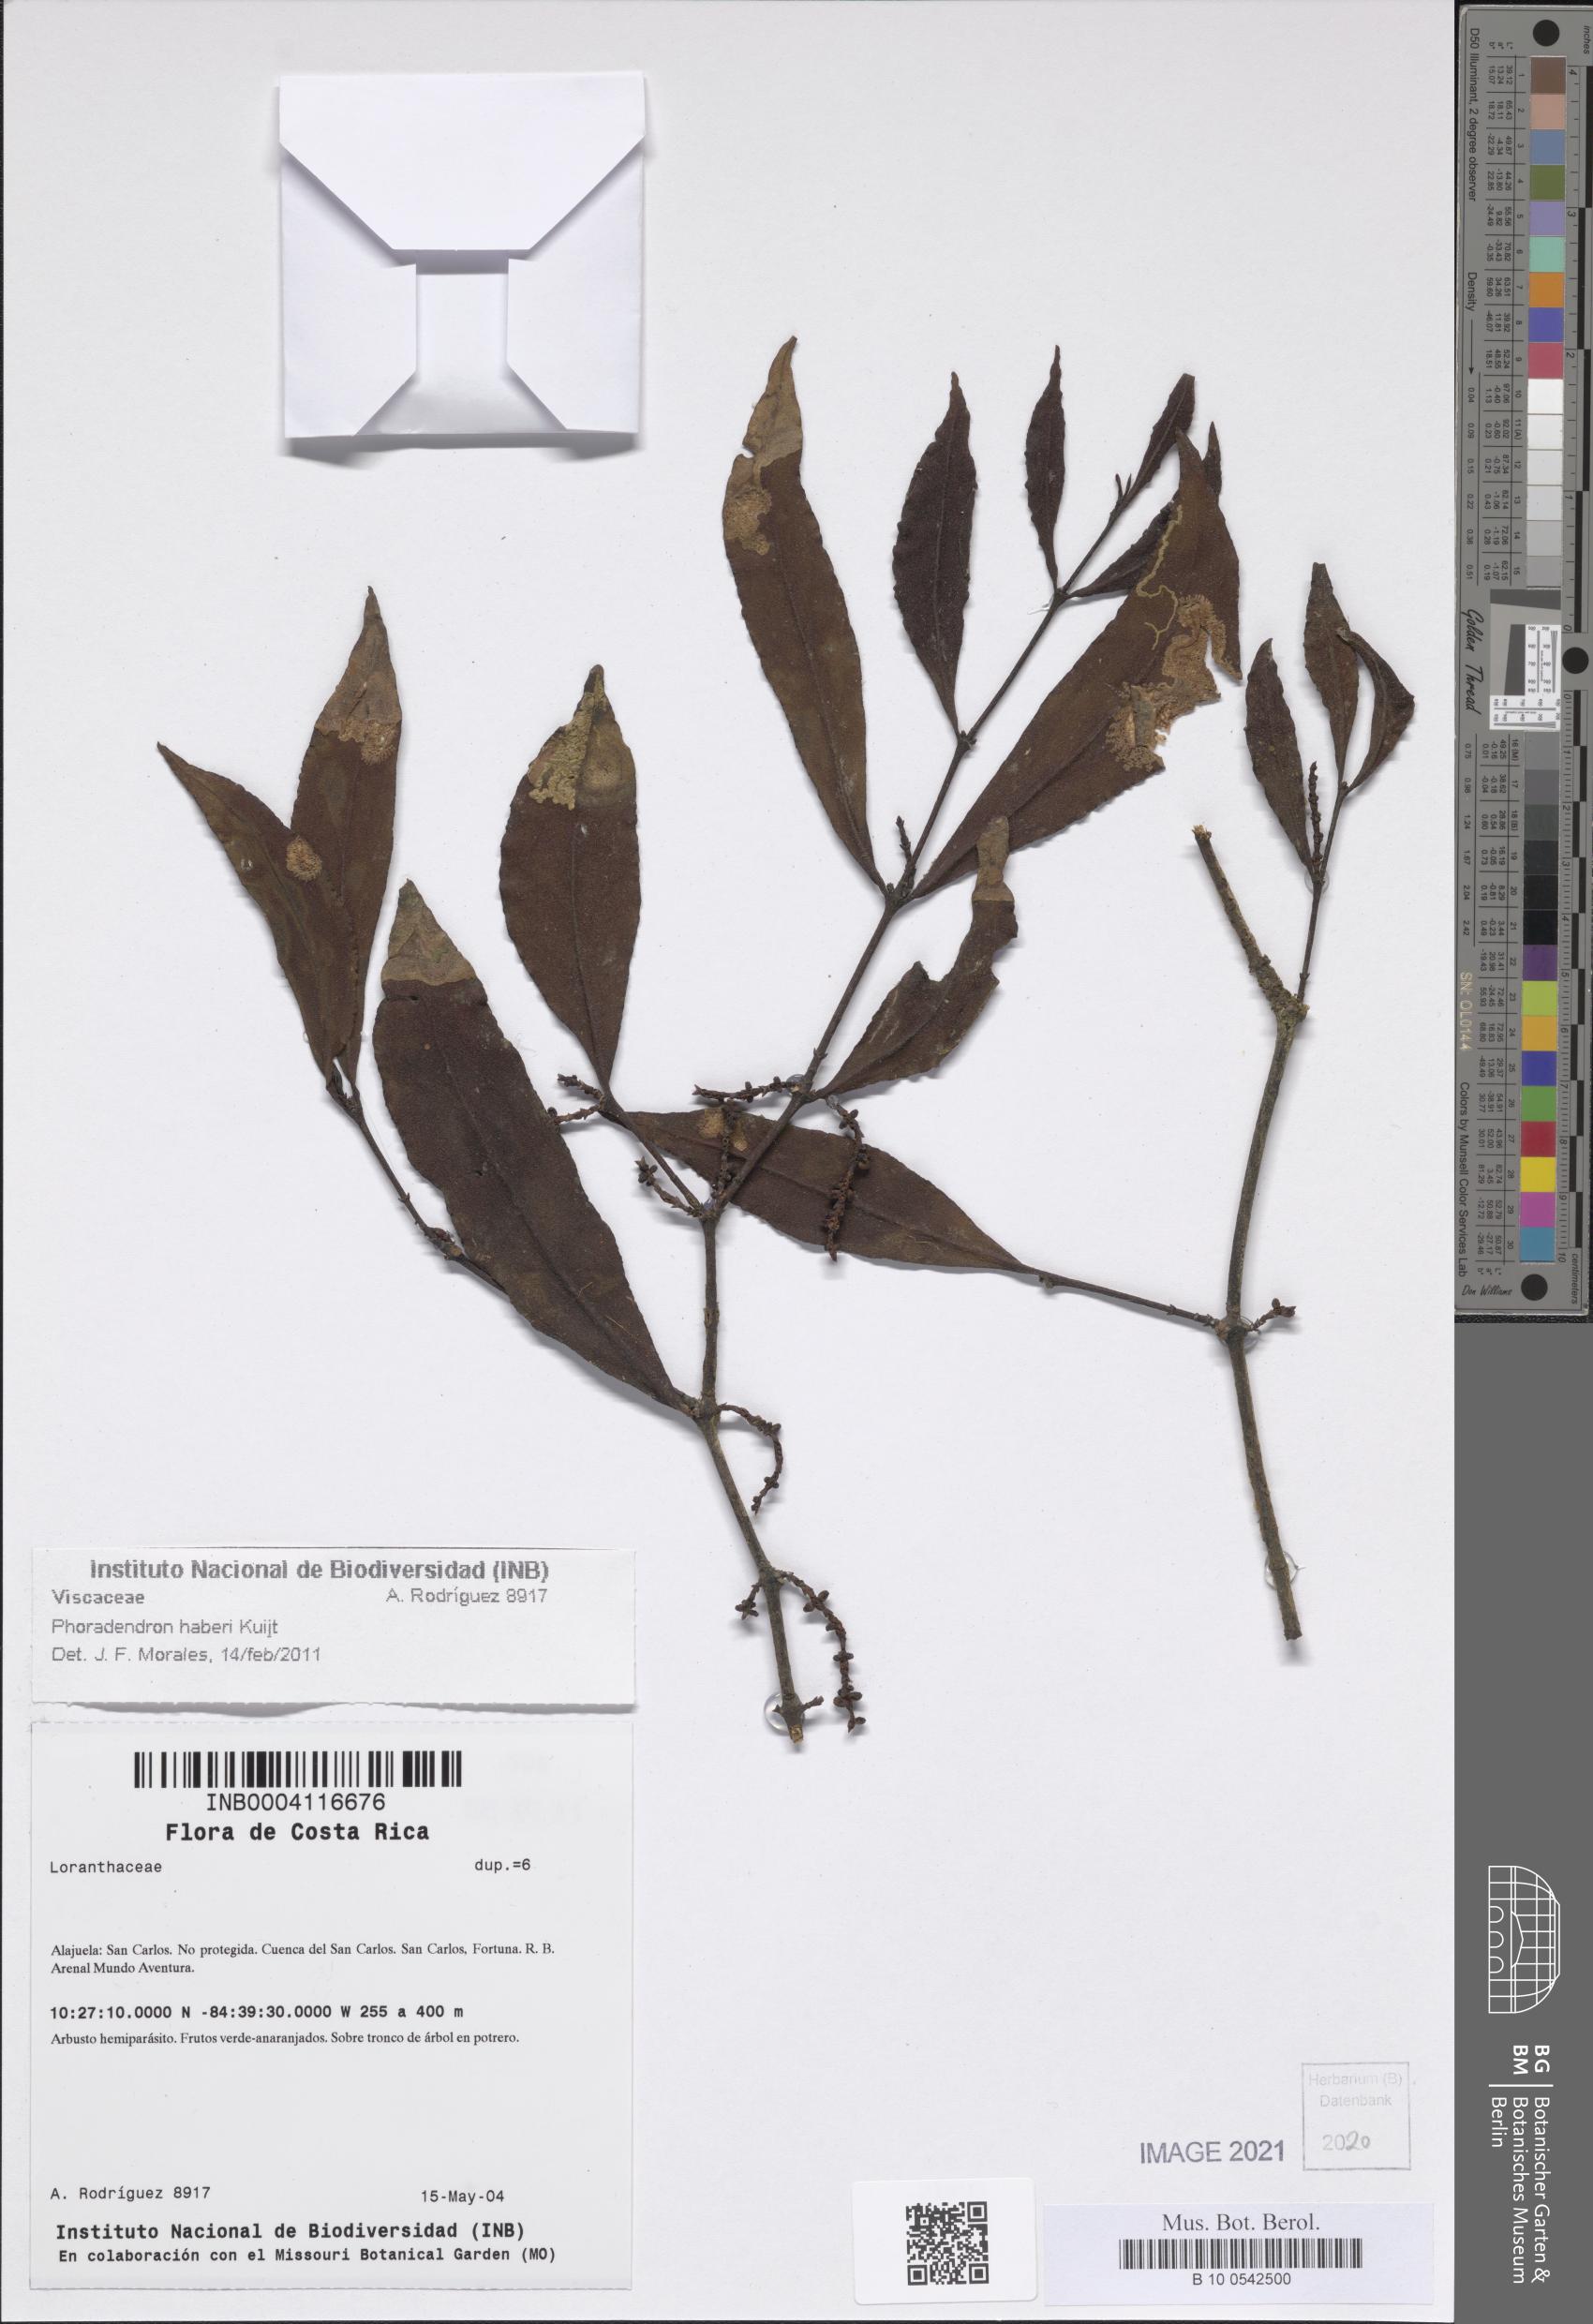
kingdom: Plantae
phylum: Tracheophyta
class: Magnoliopsida
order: Santalales
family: Viscaceae
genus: Phoradendron
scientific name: Phoradendron haberi
